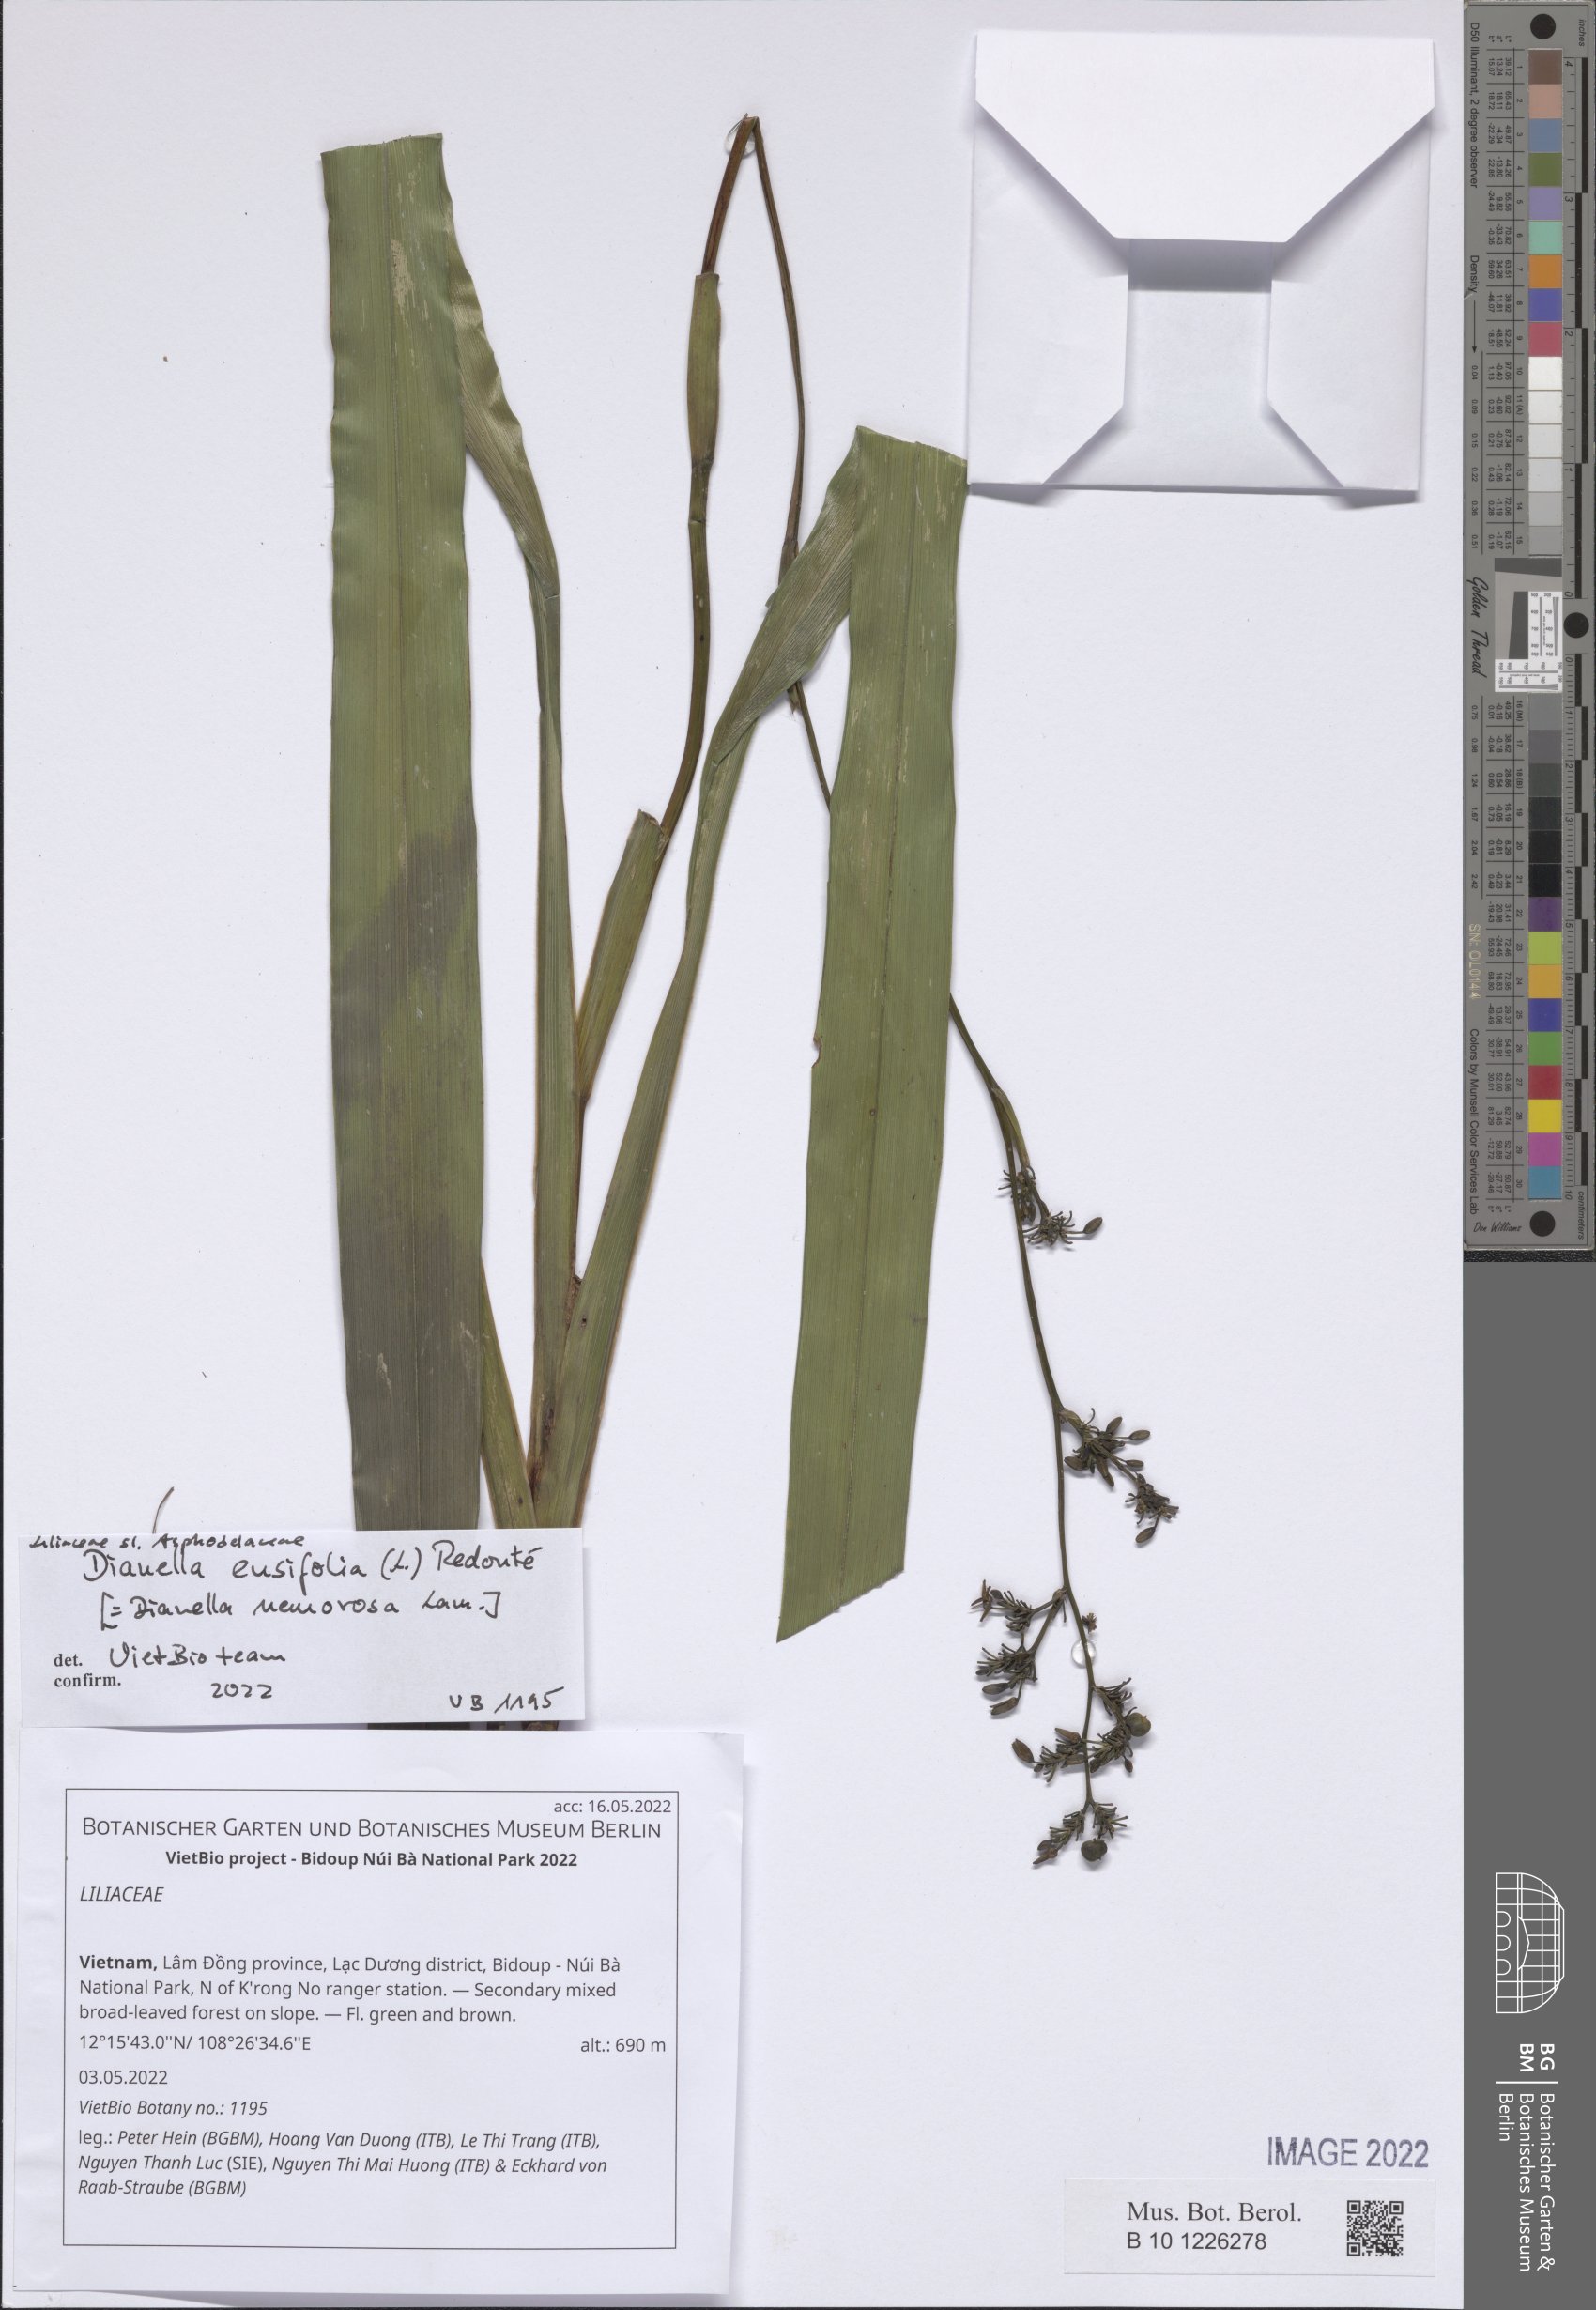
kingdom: Plantae
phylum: Tracheophyta
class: Liliopsida
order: Liliales
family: Liliaceae
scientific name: Liliaceae
